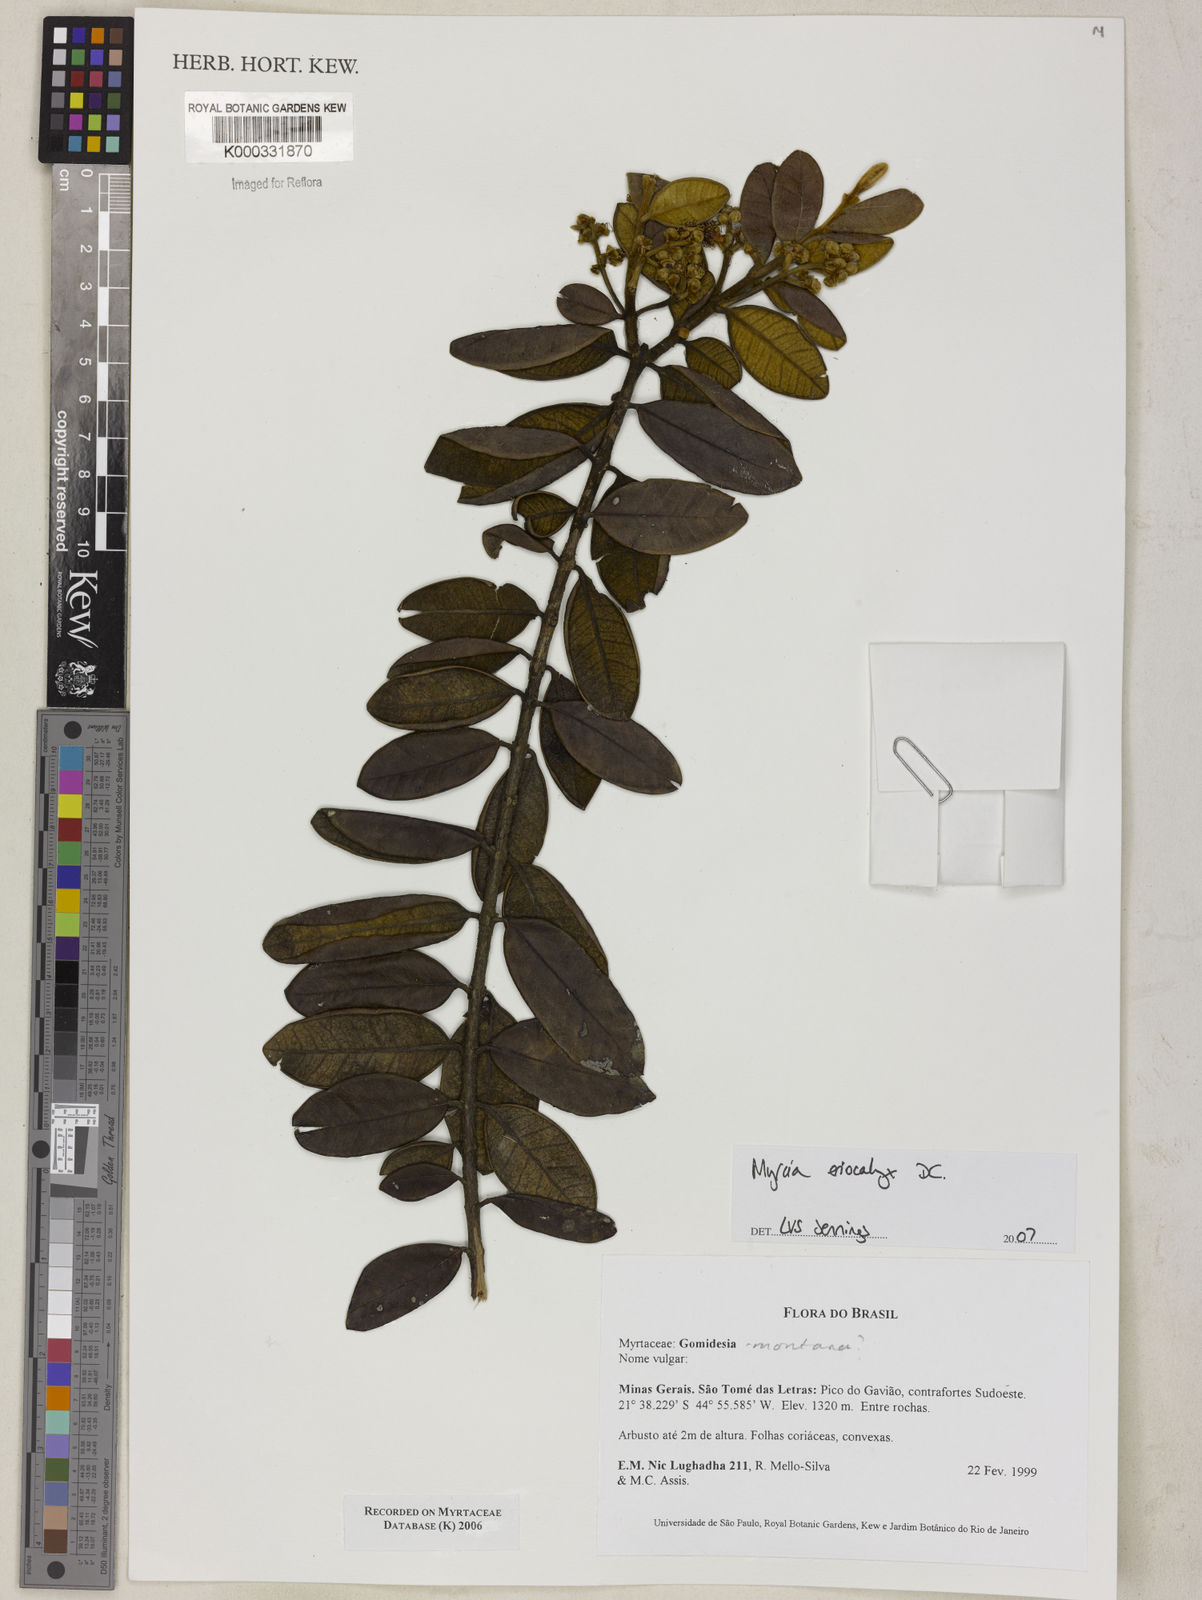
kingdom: Plantae
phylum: Tracheophyta
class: Magnoliopsida
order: Myrtales
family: Myrtaceae
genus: Myrcia
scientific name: Myrcia eriocalyx
